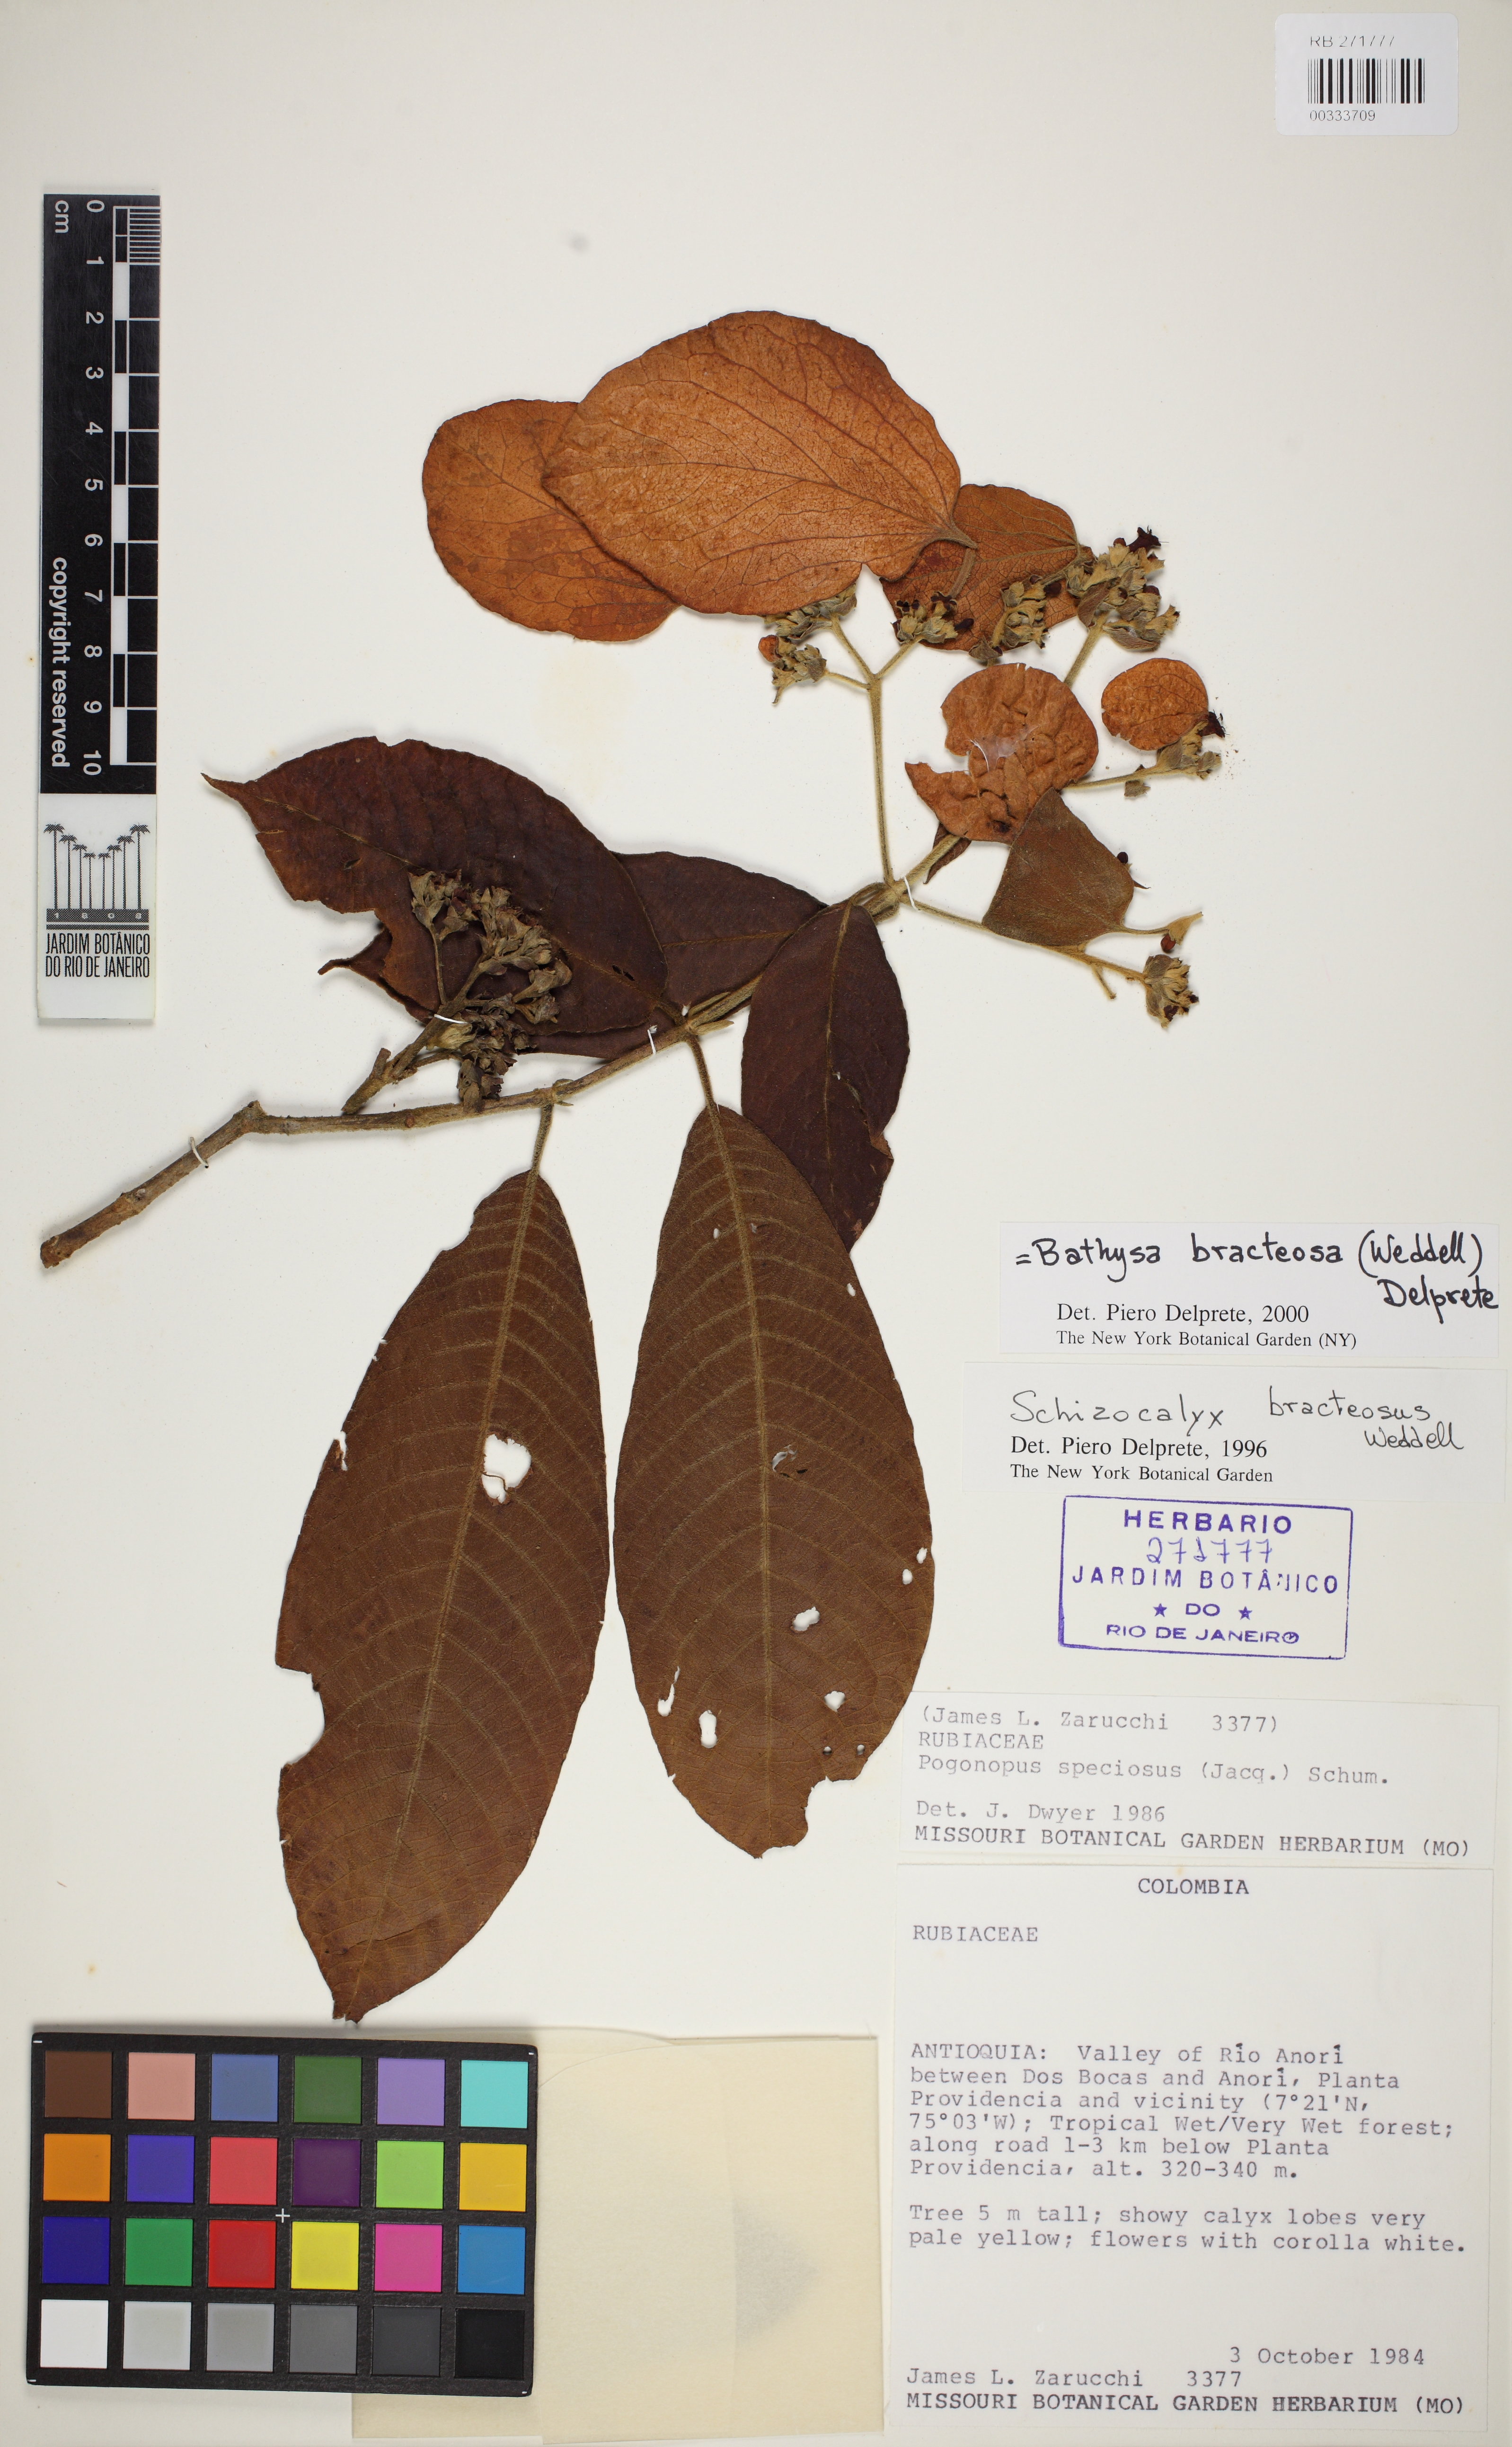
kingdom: Plantae
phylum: Tracheophyta
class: Magnoliopsida
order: Gentianales
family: Rubiaceae
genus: Schizocalyx
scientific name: Schizocalyx bracteosa
